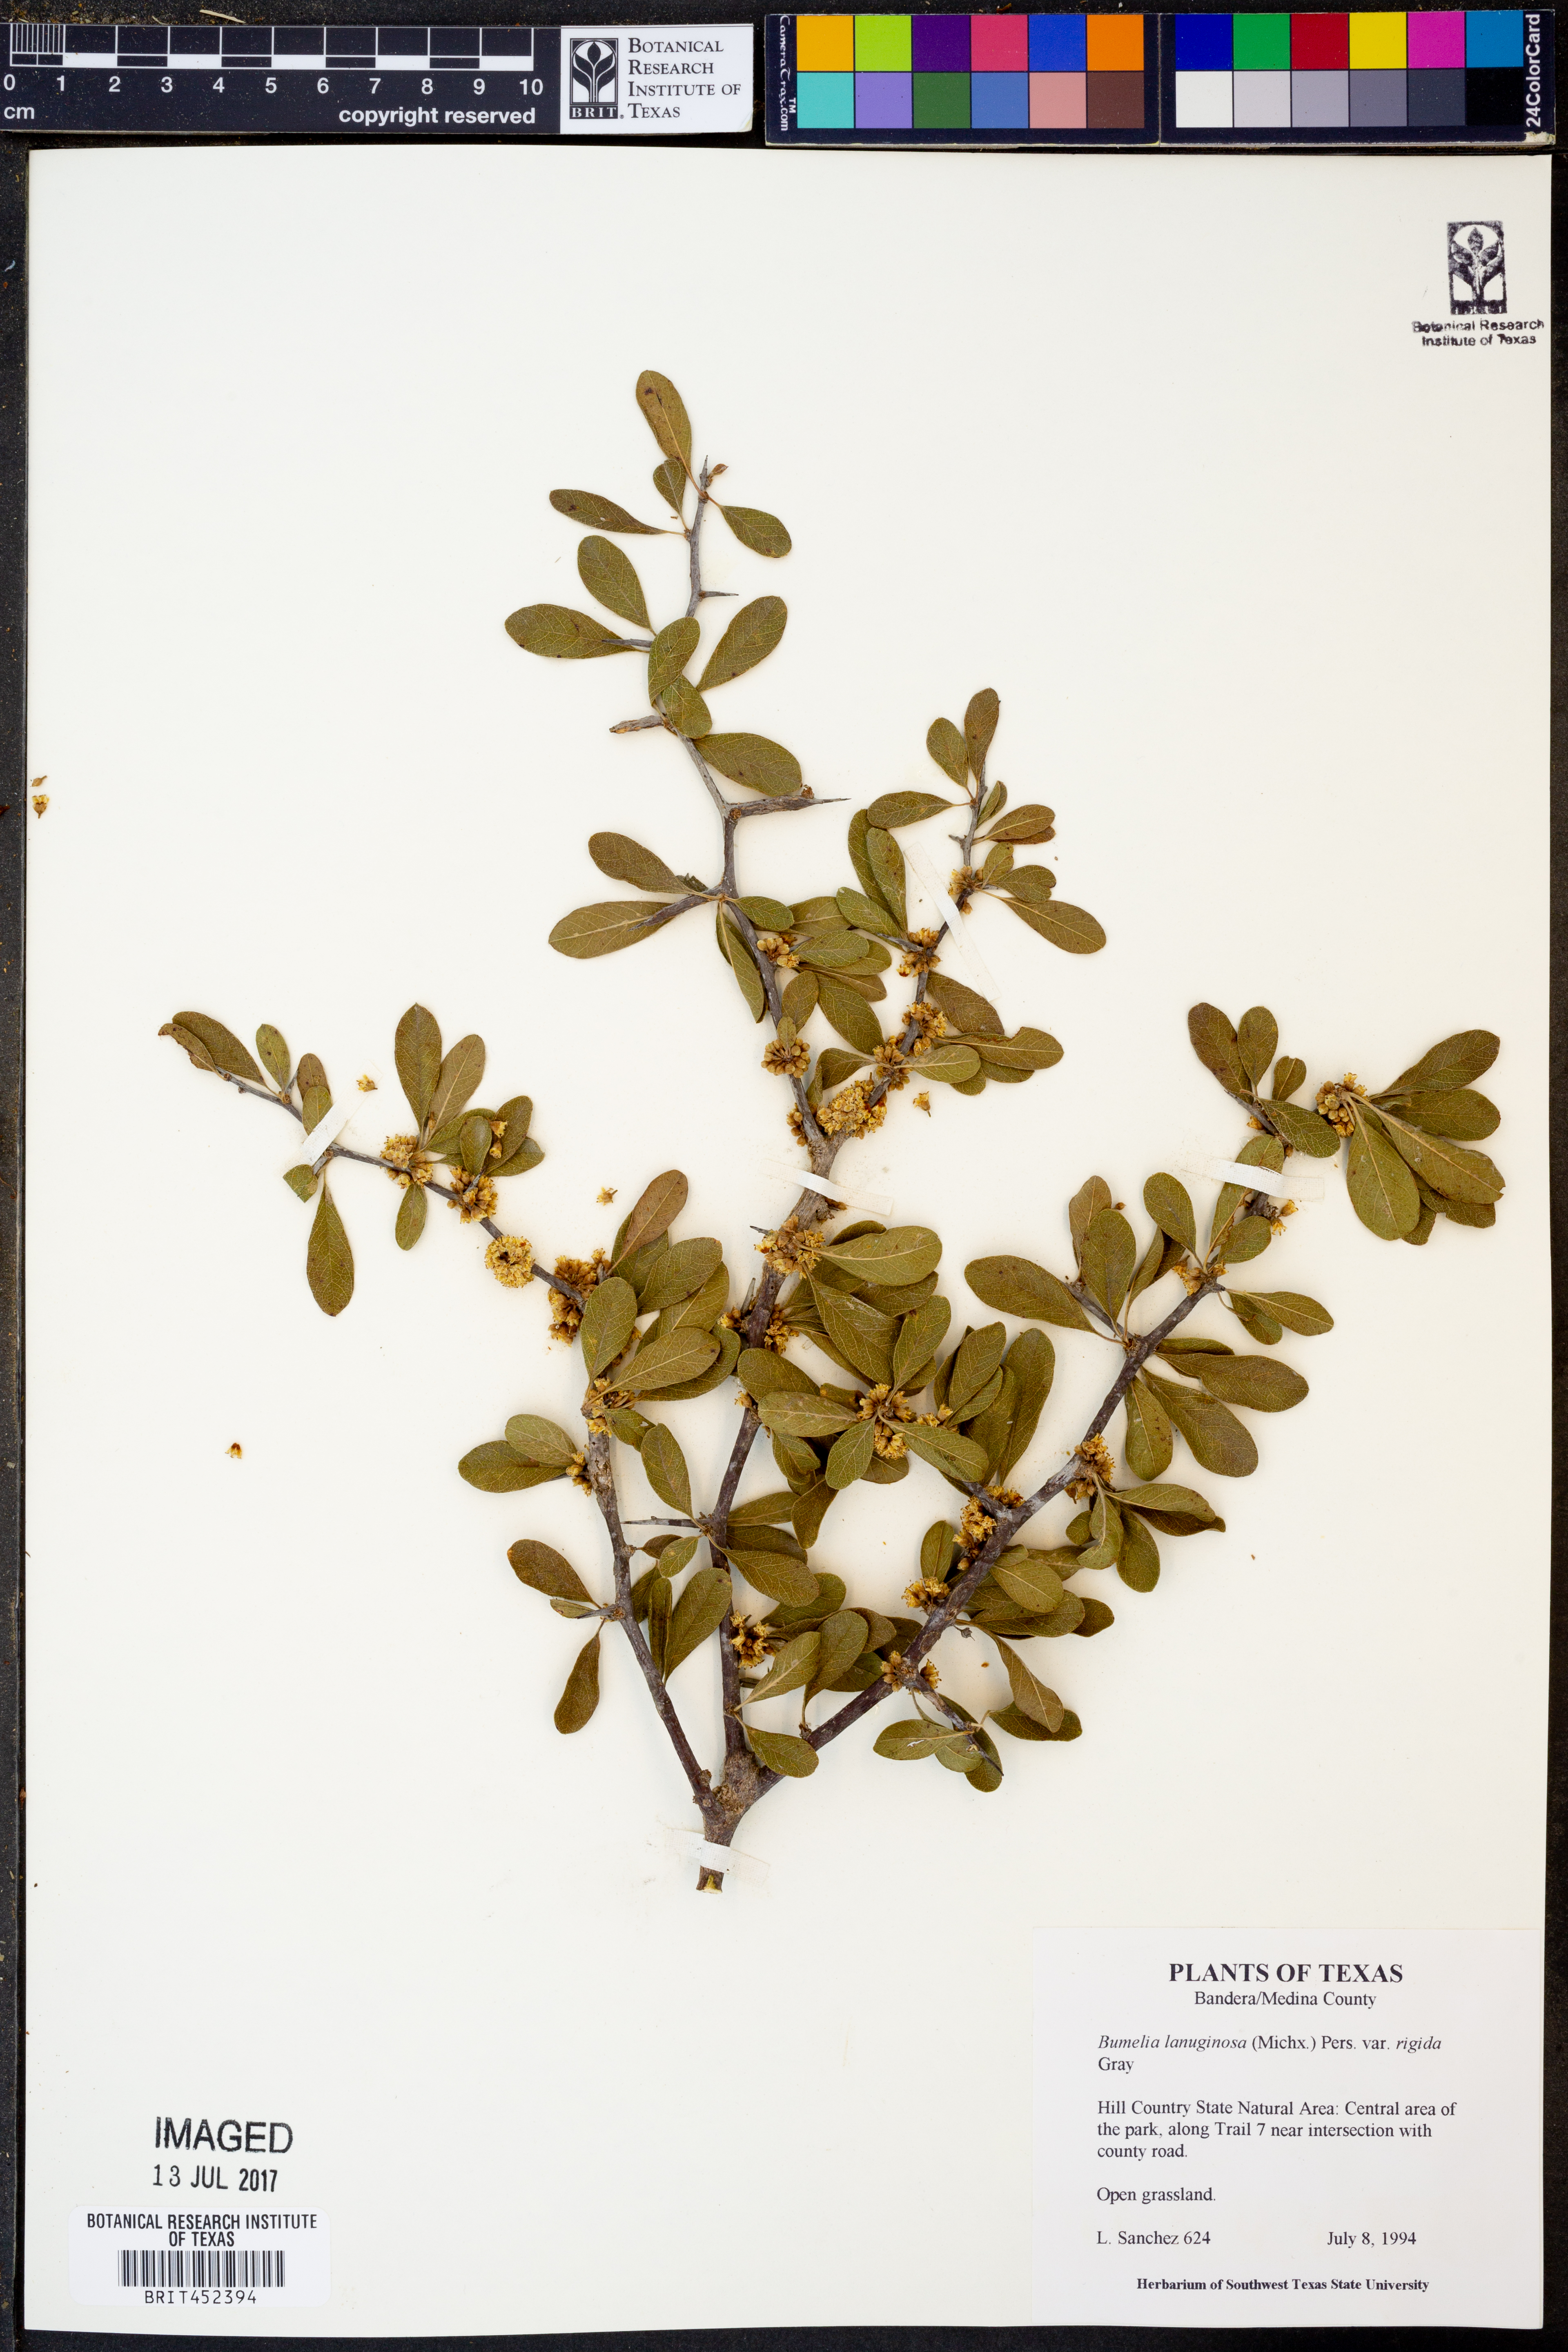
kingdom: Plantae
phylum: Tracheophyta
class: Magnoliopsida
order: Ericales
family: Sapotaceae
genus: Sideroxylon
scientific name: Sideroxylon lanuginosum
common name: Chittamwood
